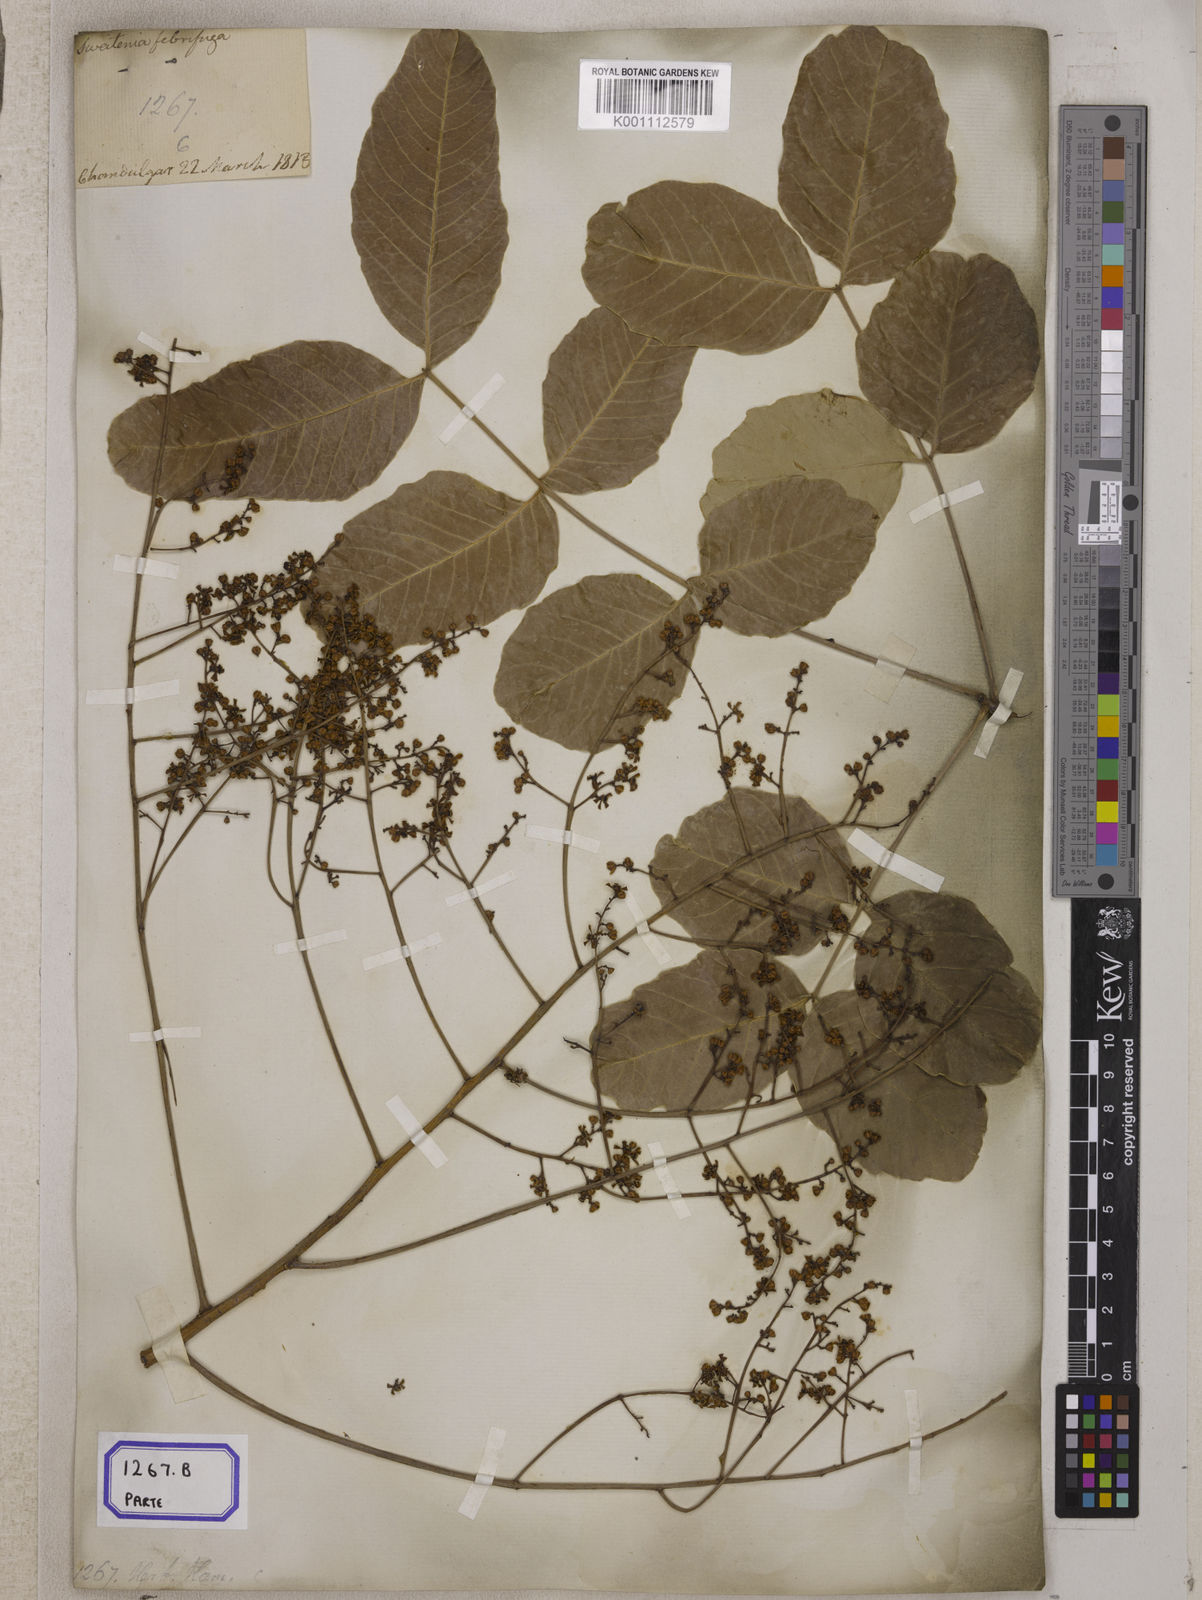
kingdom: Plantae
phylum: Tracheophyta
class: Magnoliopsida
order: Sapindales
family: Meliaceae
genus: Soymida
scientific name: Soymida febrifuga
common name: Indian-redwood
